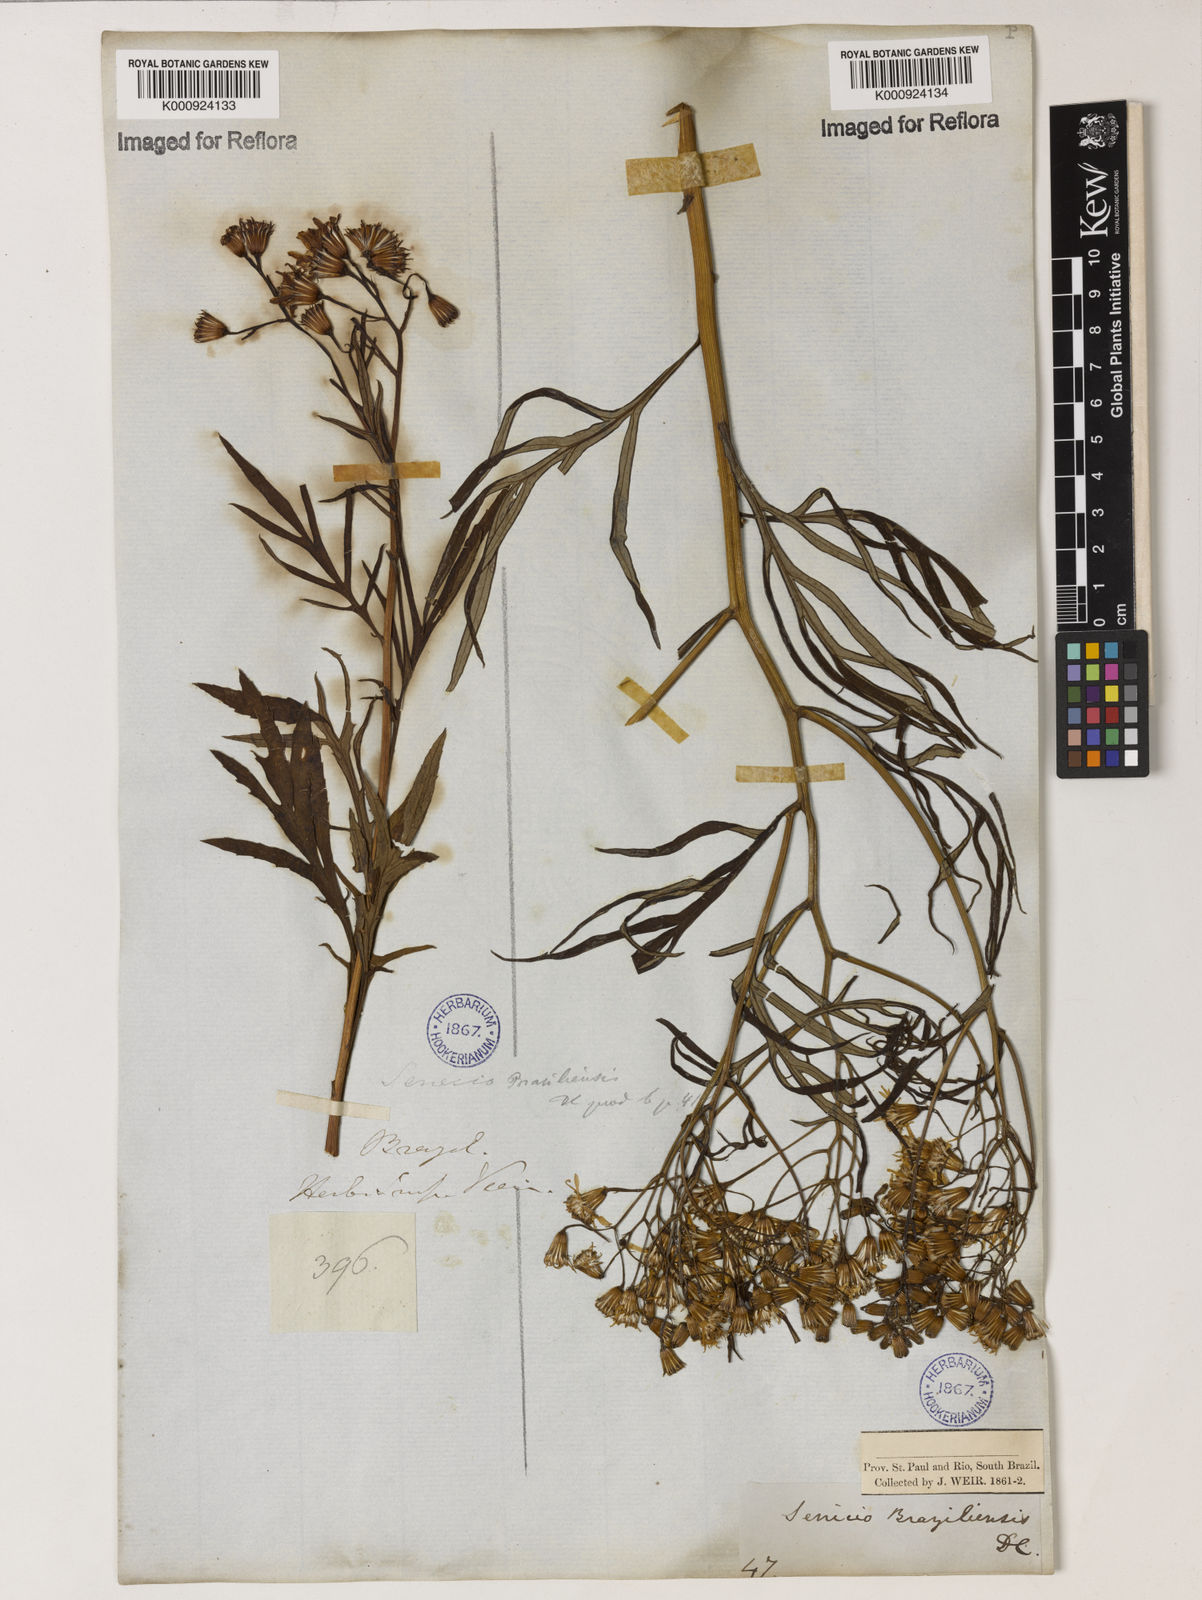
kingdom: Plantae
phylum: Tracheophyta
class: Magnoliopsida
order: Asterales
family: Asteraceae
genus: Senecio
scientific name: Senecio brasiliensis
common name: Hemp-leaf ragwort
